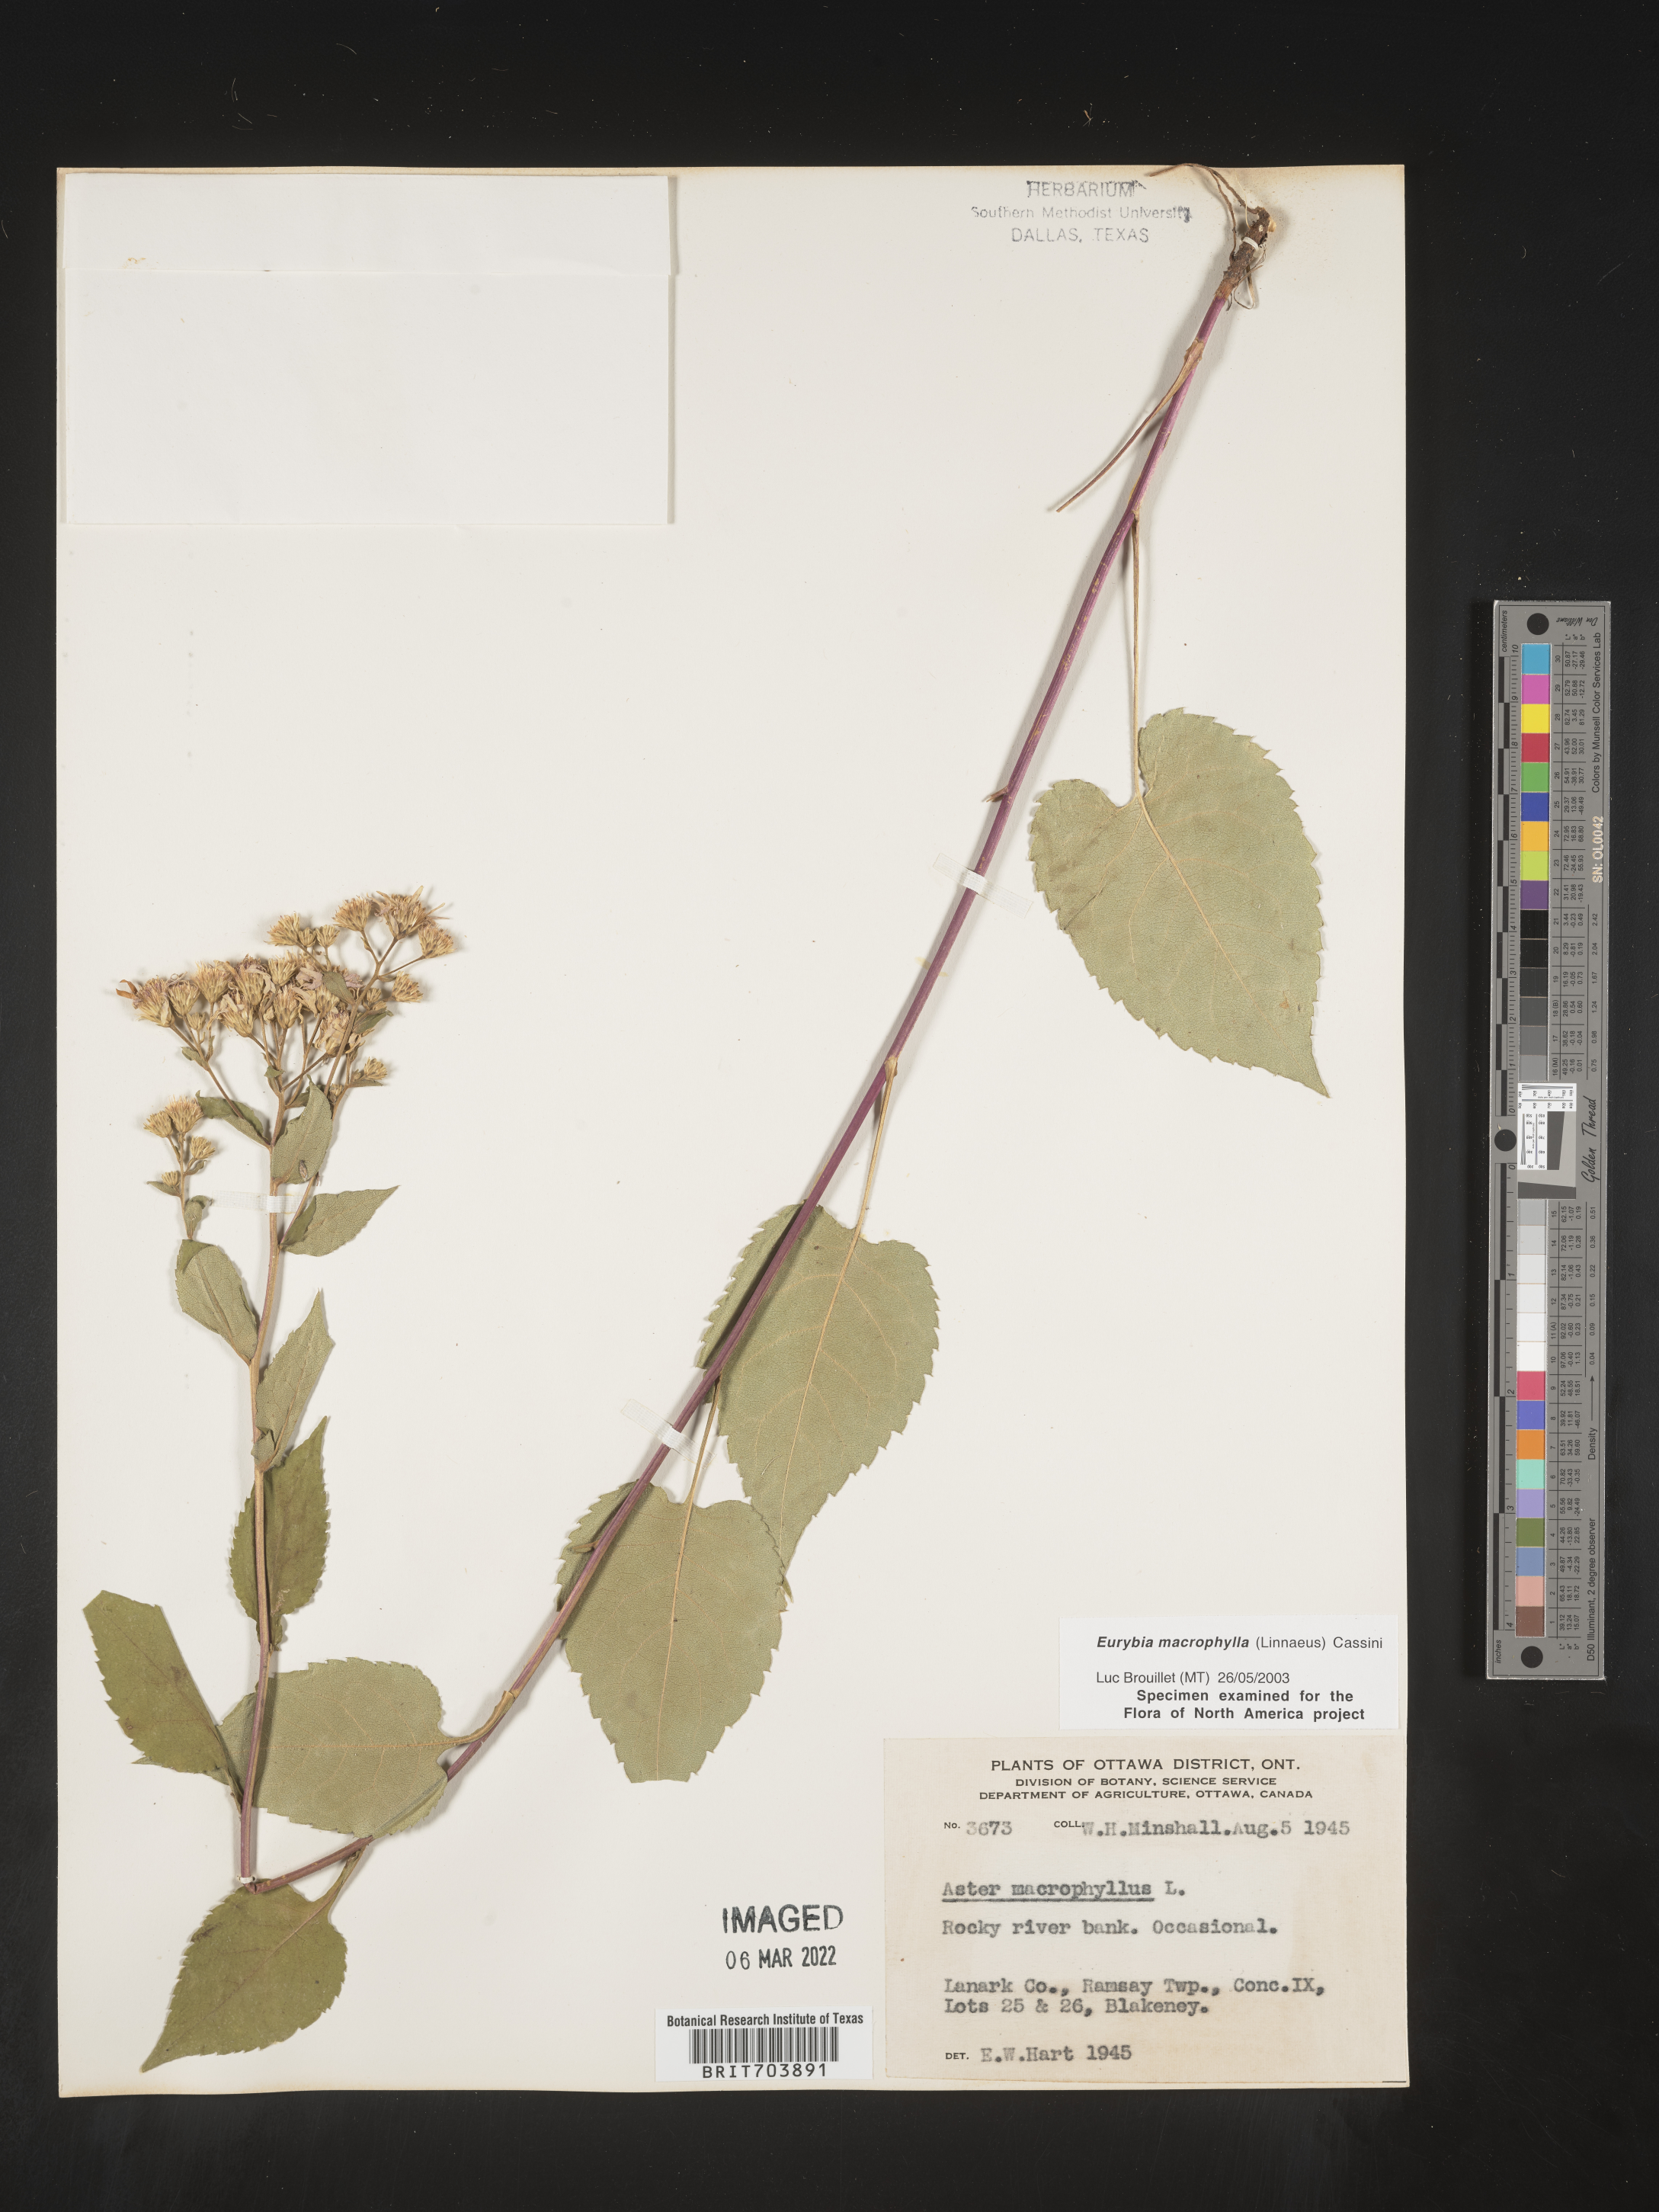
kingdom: Plantae
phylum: Tracheophyta
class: Magnoliopsida
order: Asterales
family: Asteraceae
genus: Eurybia
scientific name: Eurybia macrophylla
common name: Big-leaved aster
